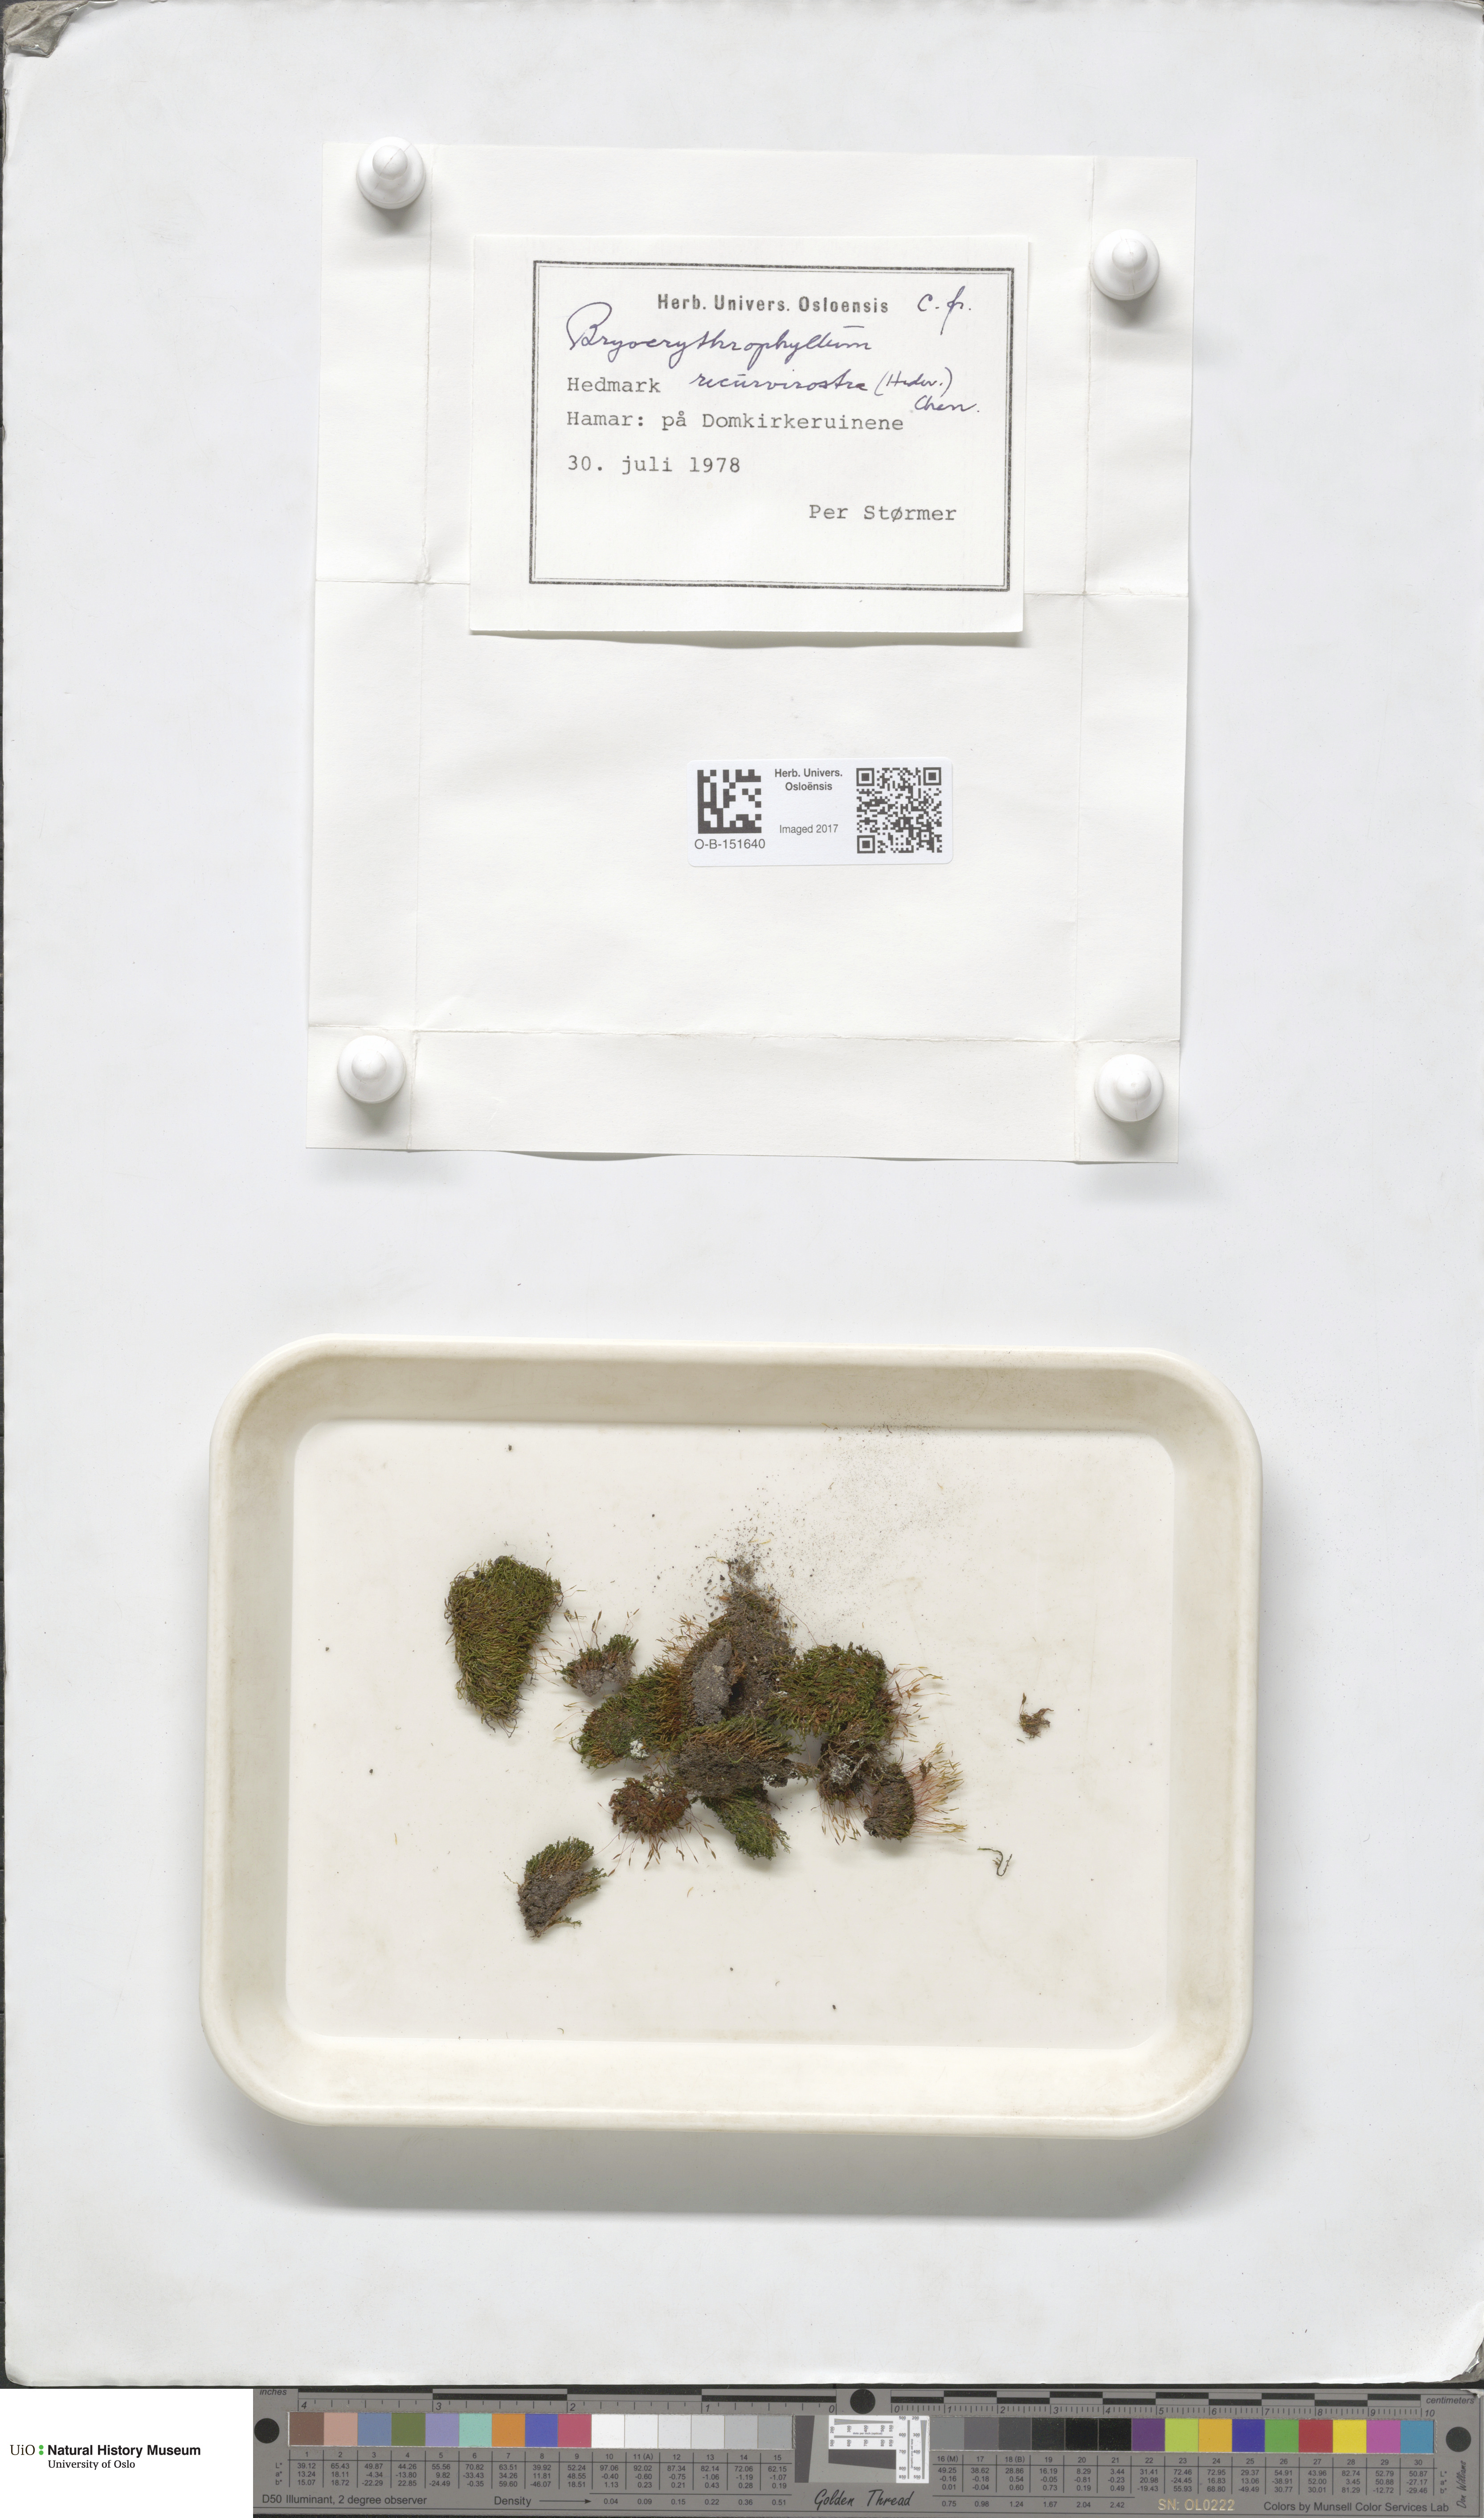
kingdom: Plantae
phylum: Bryophyta
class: Bryopsida
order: Pottiales
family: Pottiaceae
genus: Bryoerythrophyllum
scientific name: Bryoerythrophyllum recurvirostrum
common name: Red beard moss
